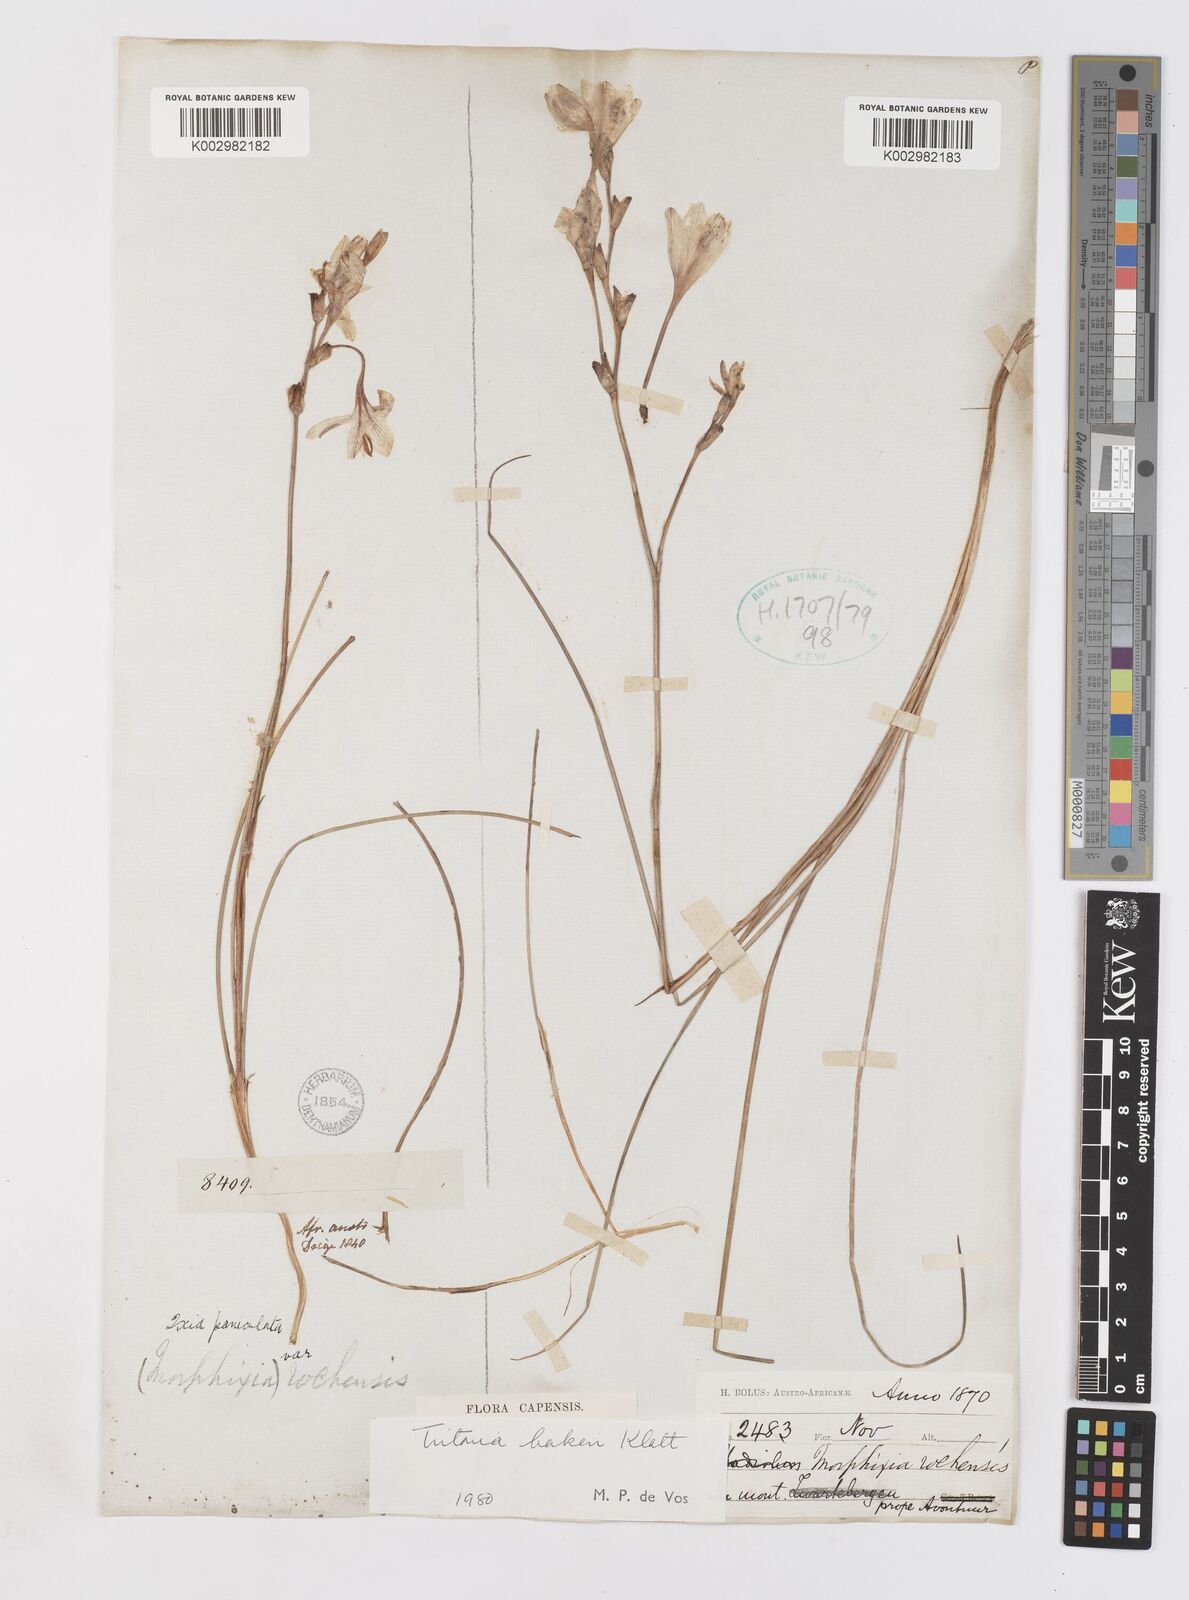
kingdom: Plantae
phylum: Tracheophyta
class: Liliopsida
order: Asparagales
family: Iridaceae
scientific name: Iridaceae
